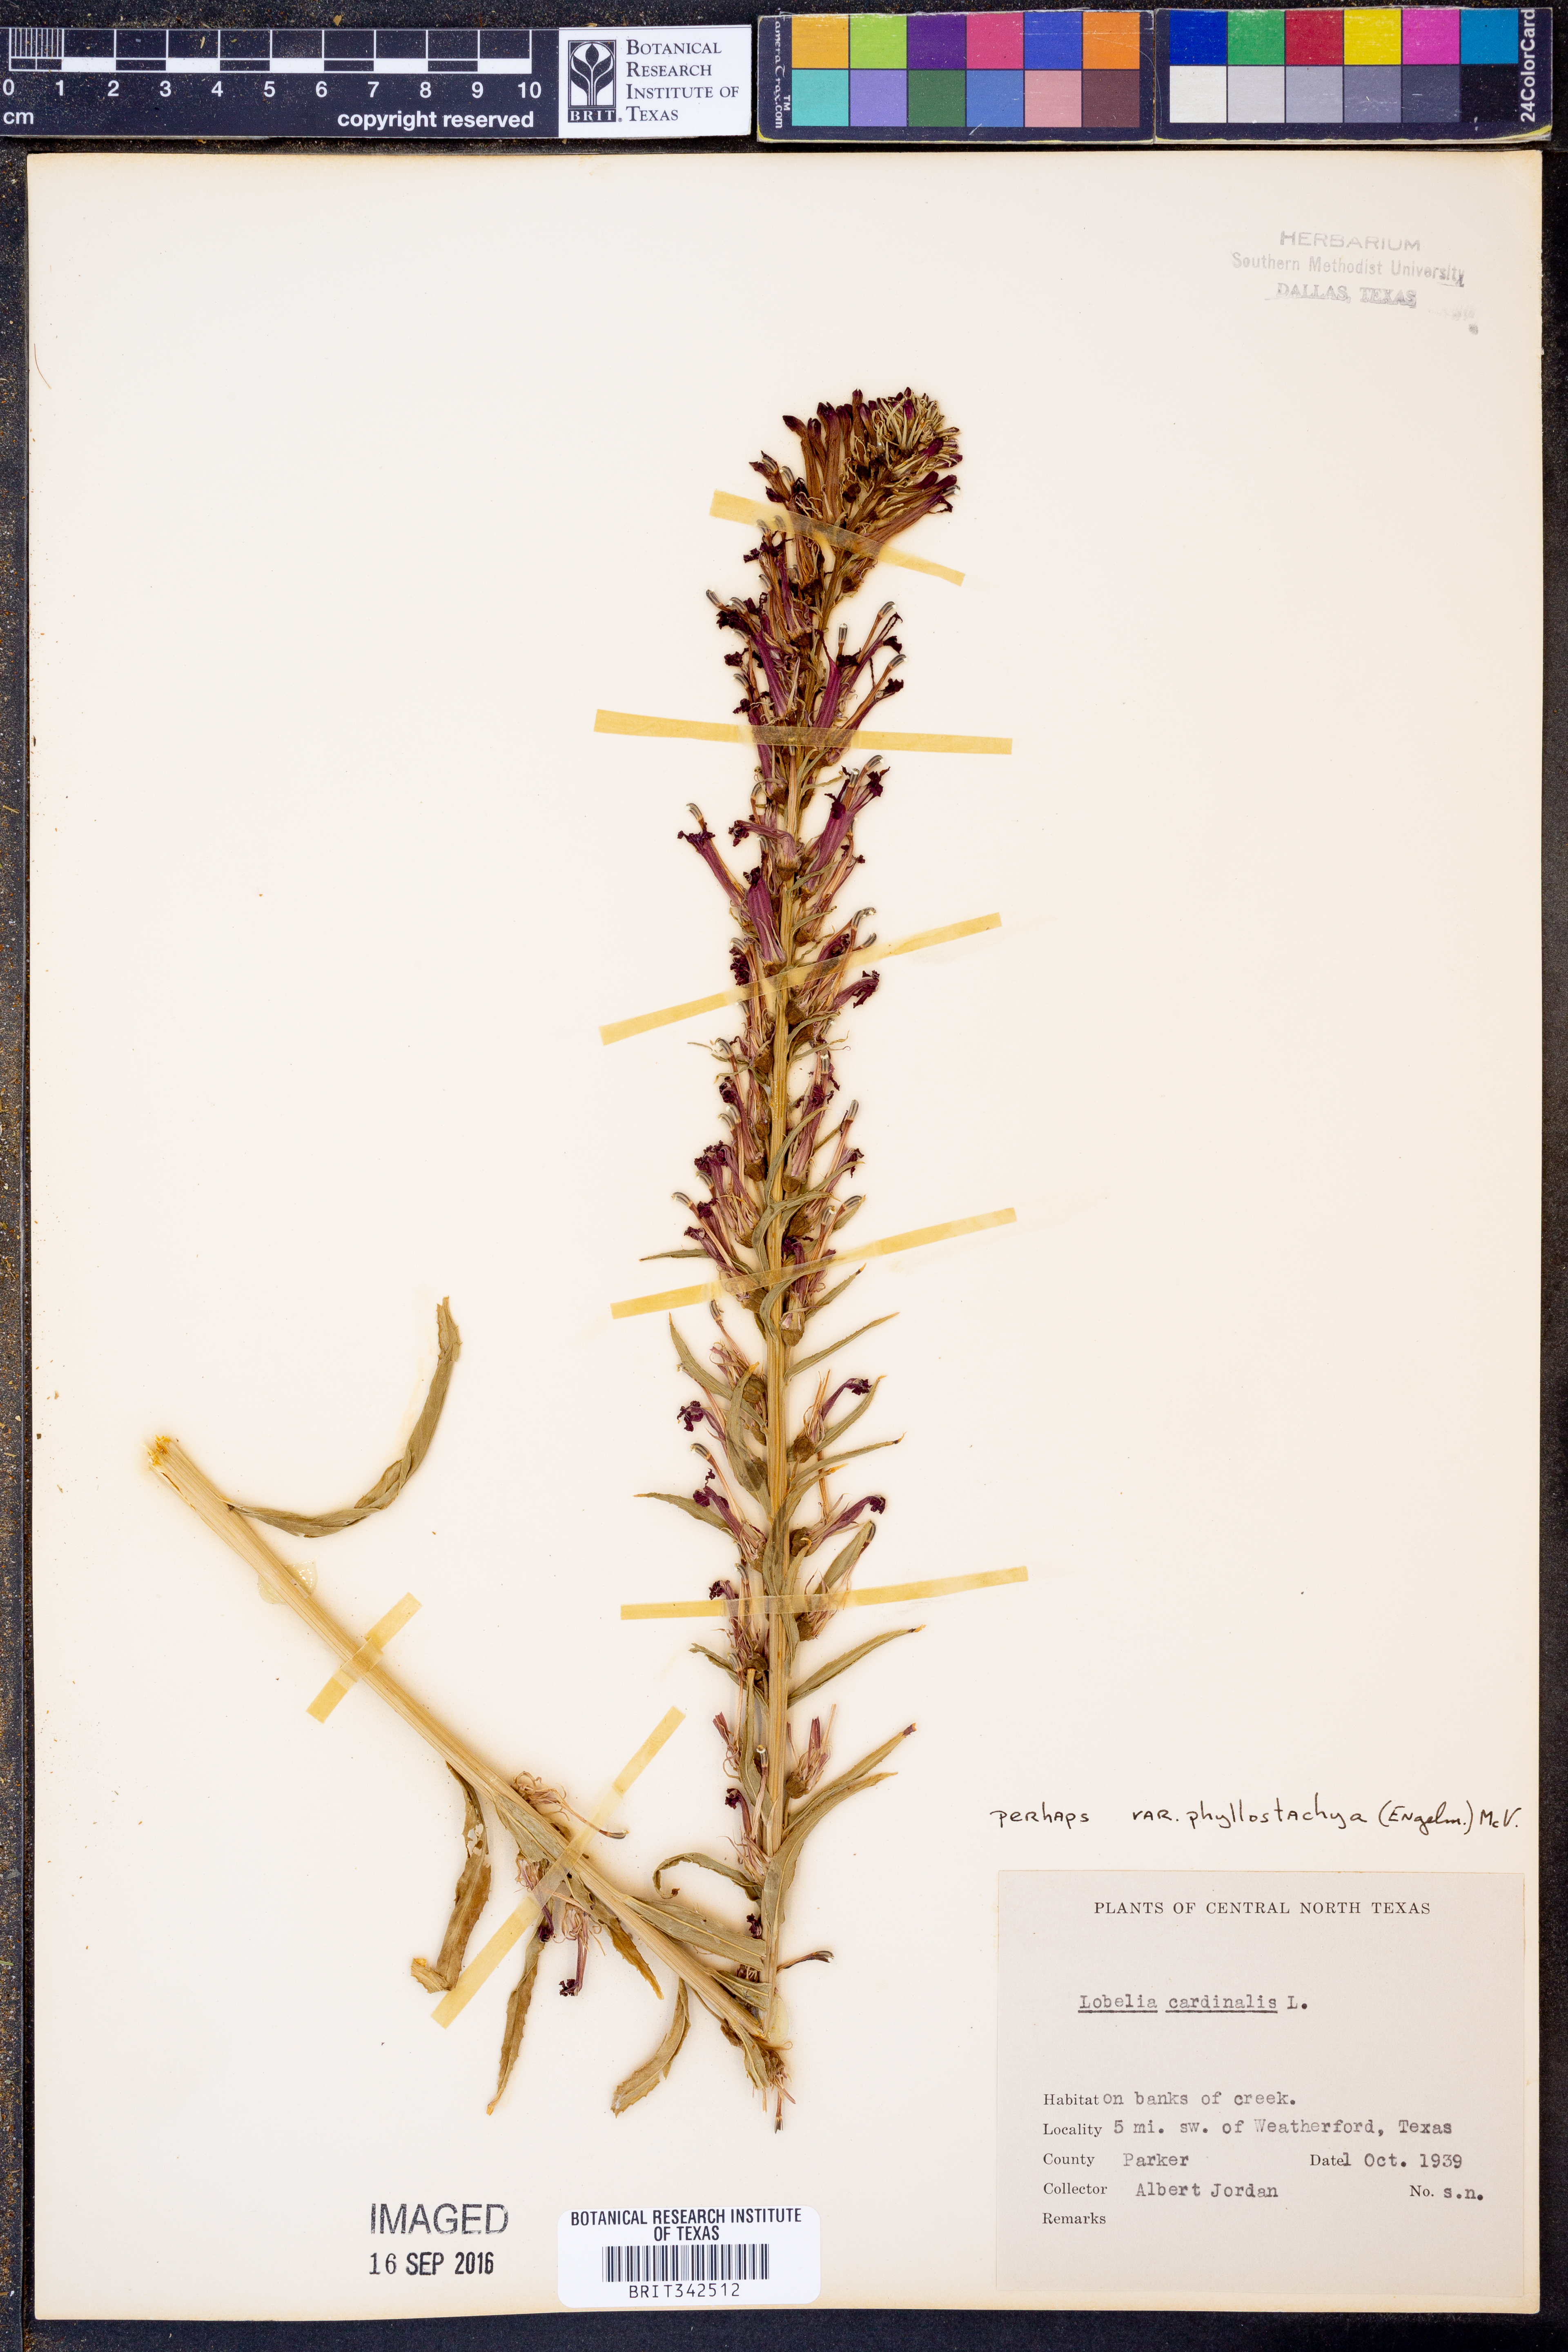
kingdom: Plantae
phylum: Tracheophyta
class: Magnoliopsida
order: Asterales
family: Campanulaceae
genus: Lobelia
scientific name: Lobelia cardinalis
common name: Cardinal flower
